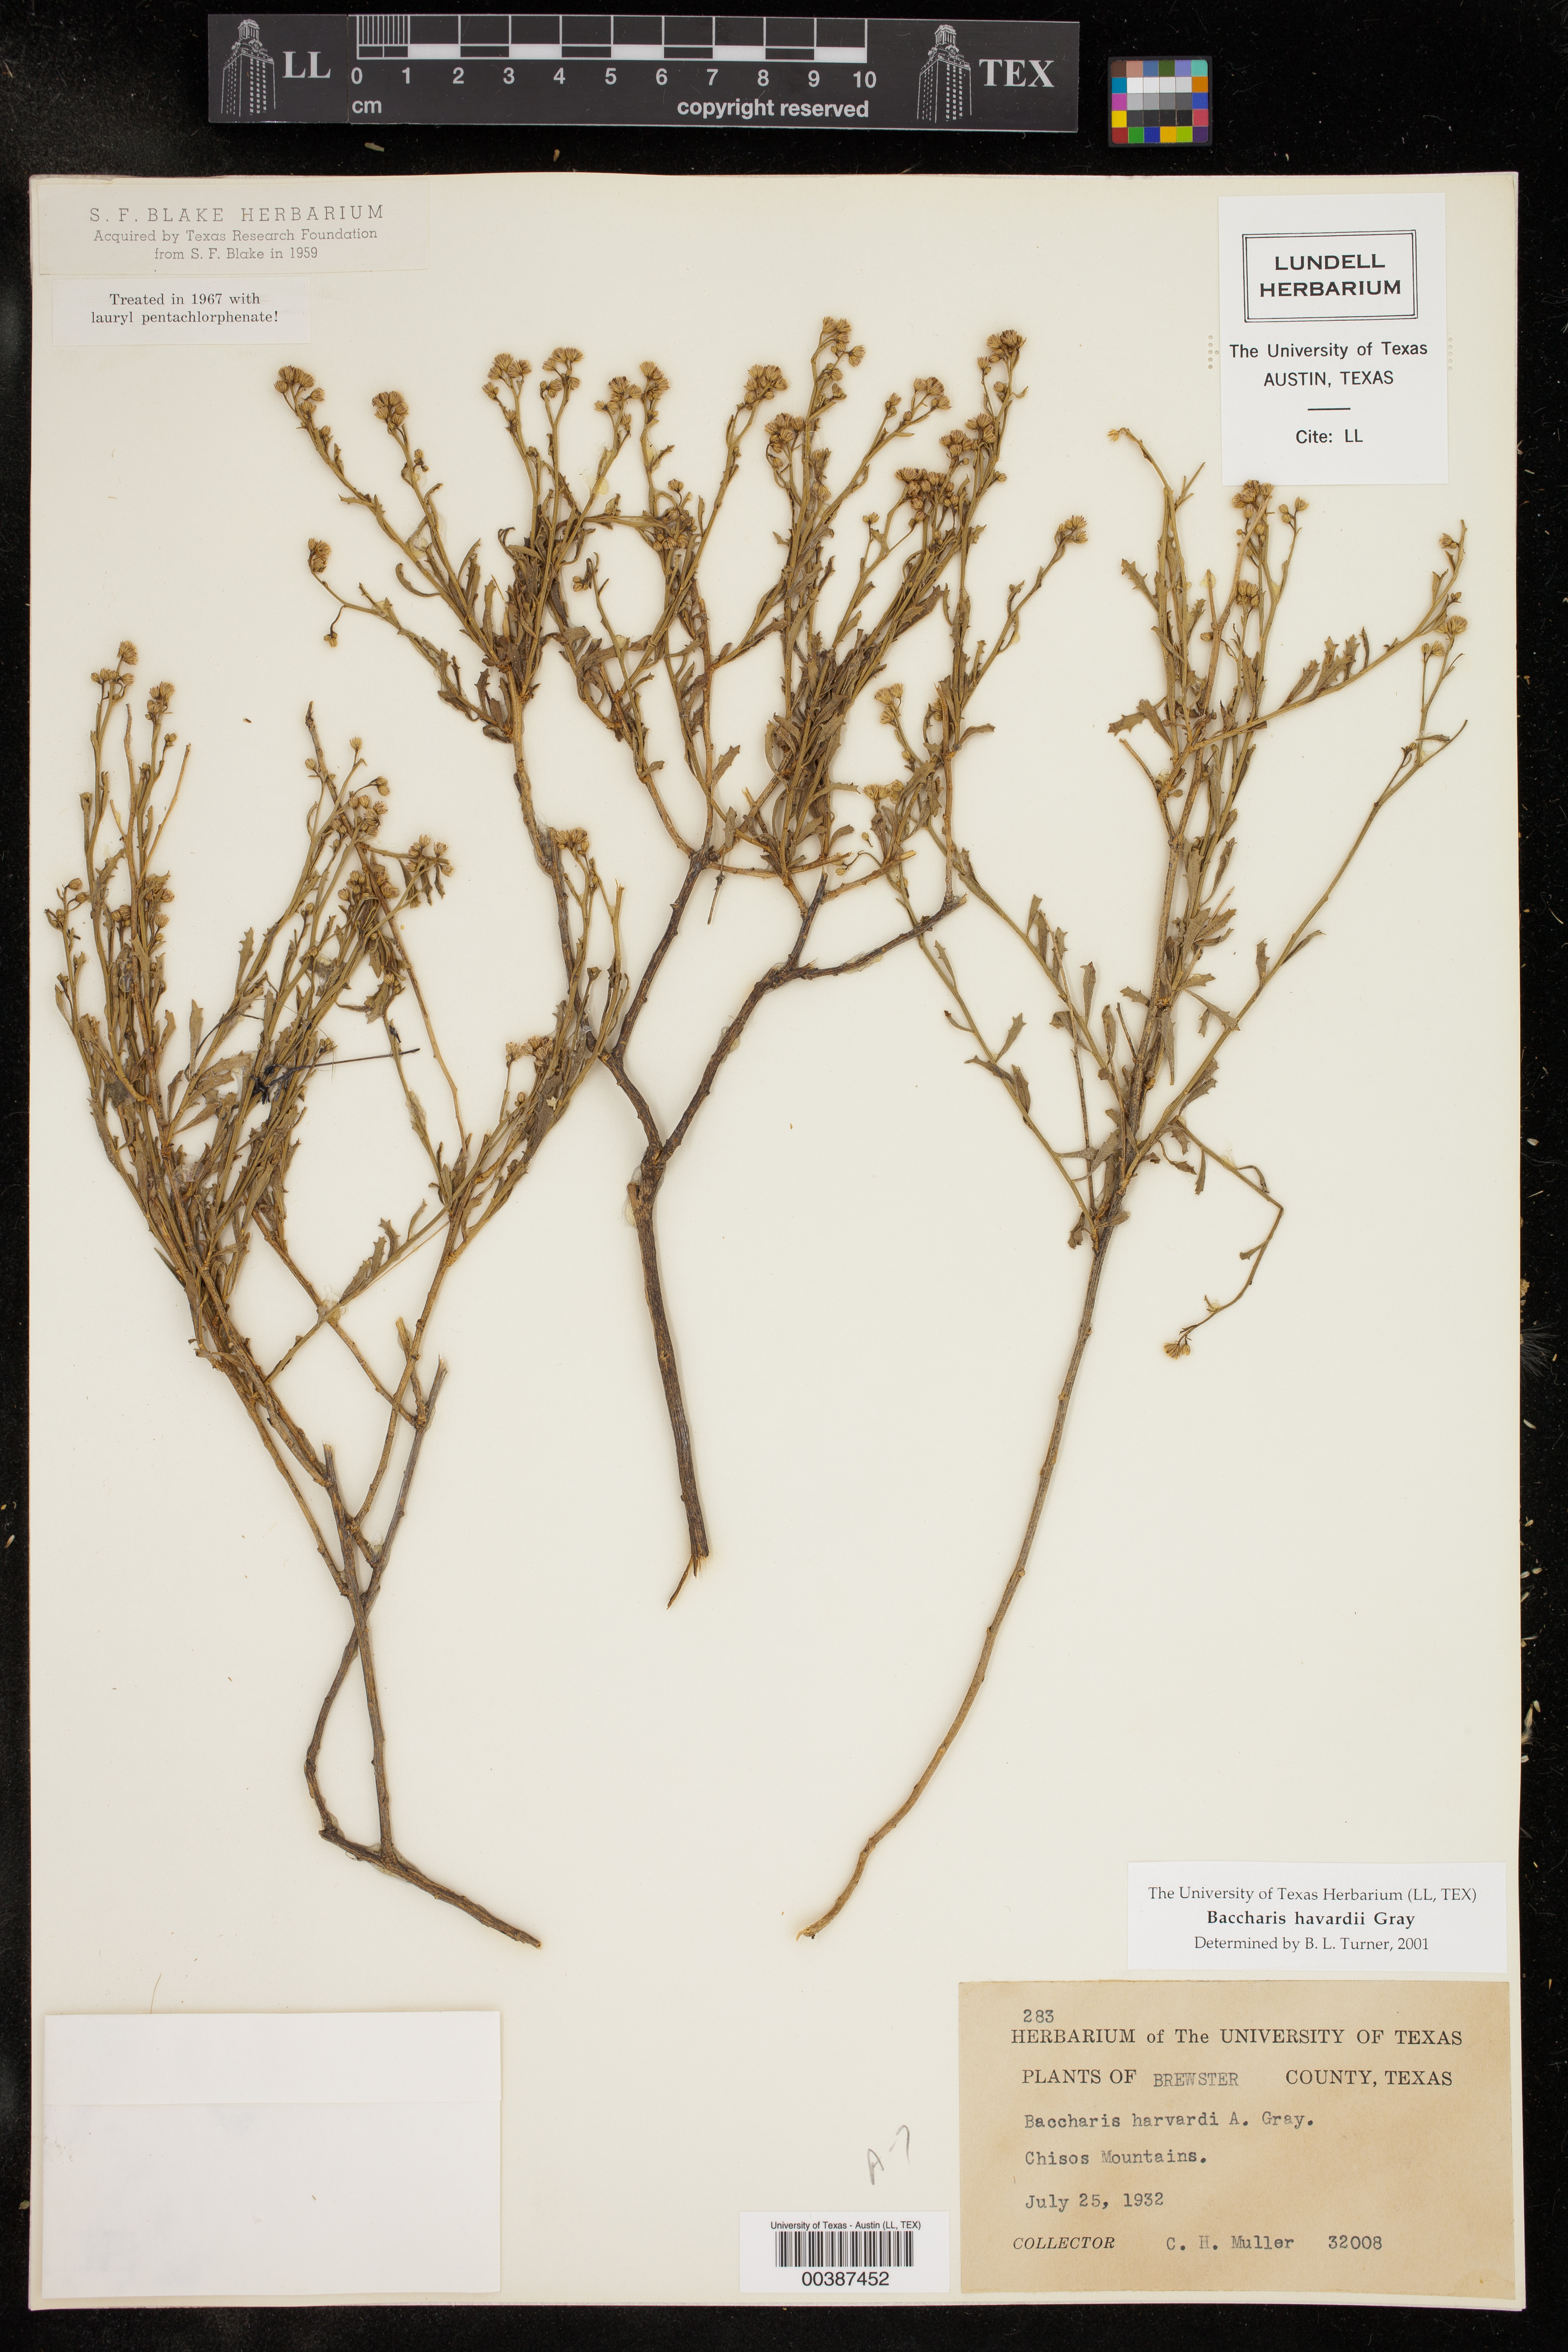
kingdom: Plantae
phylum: Tracheophyta
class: Magnoliopsida
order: Asterales
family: Asteraceae
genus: Baccharis
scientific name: Baccharis havardii
